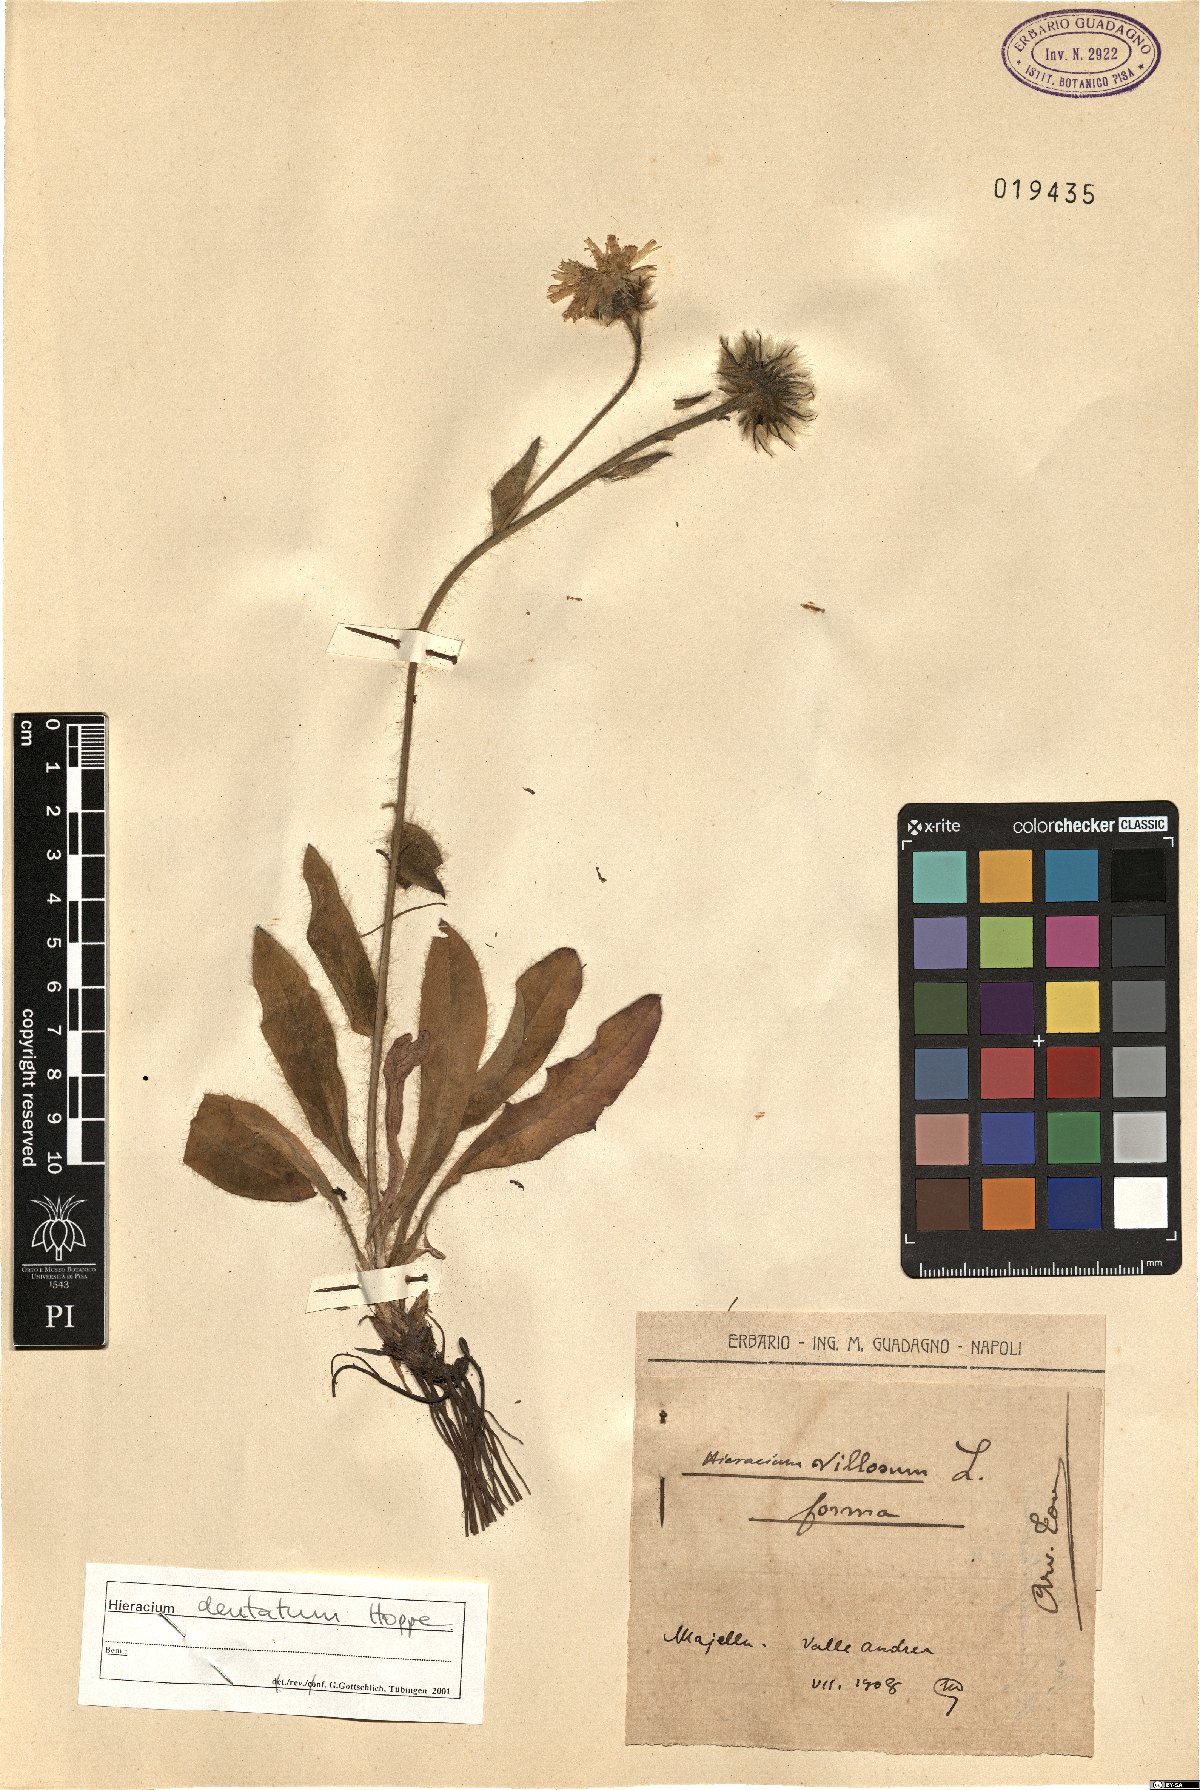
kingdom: Plantae
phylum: Tracheophyta
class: Magnoliopsida
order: Asterales
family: Asteraceae
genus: Hieracium
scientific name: Hieracium dentatum
